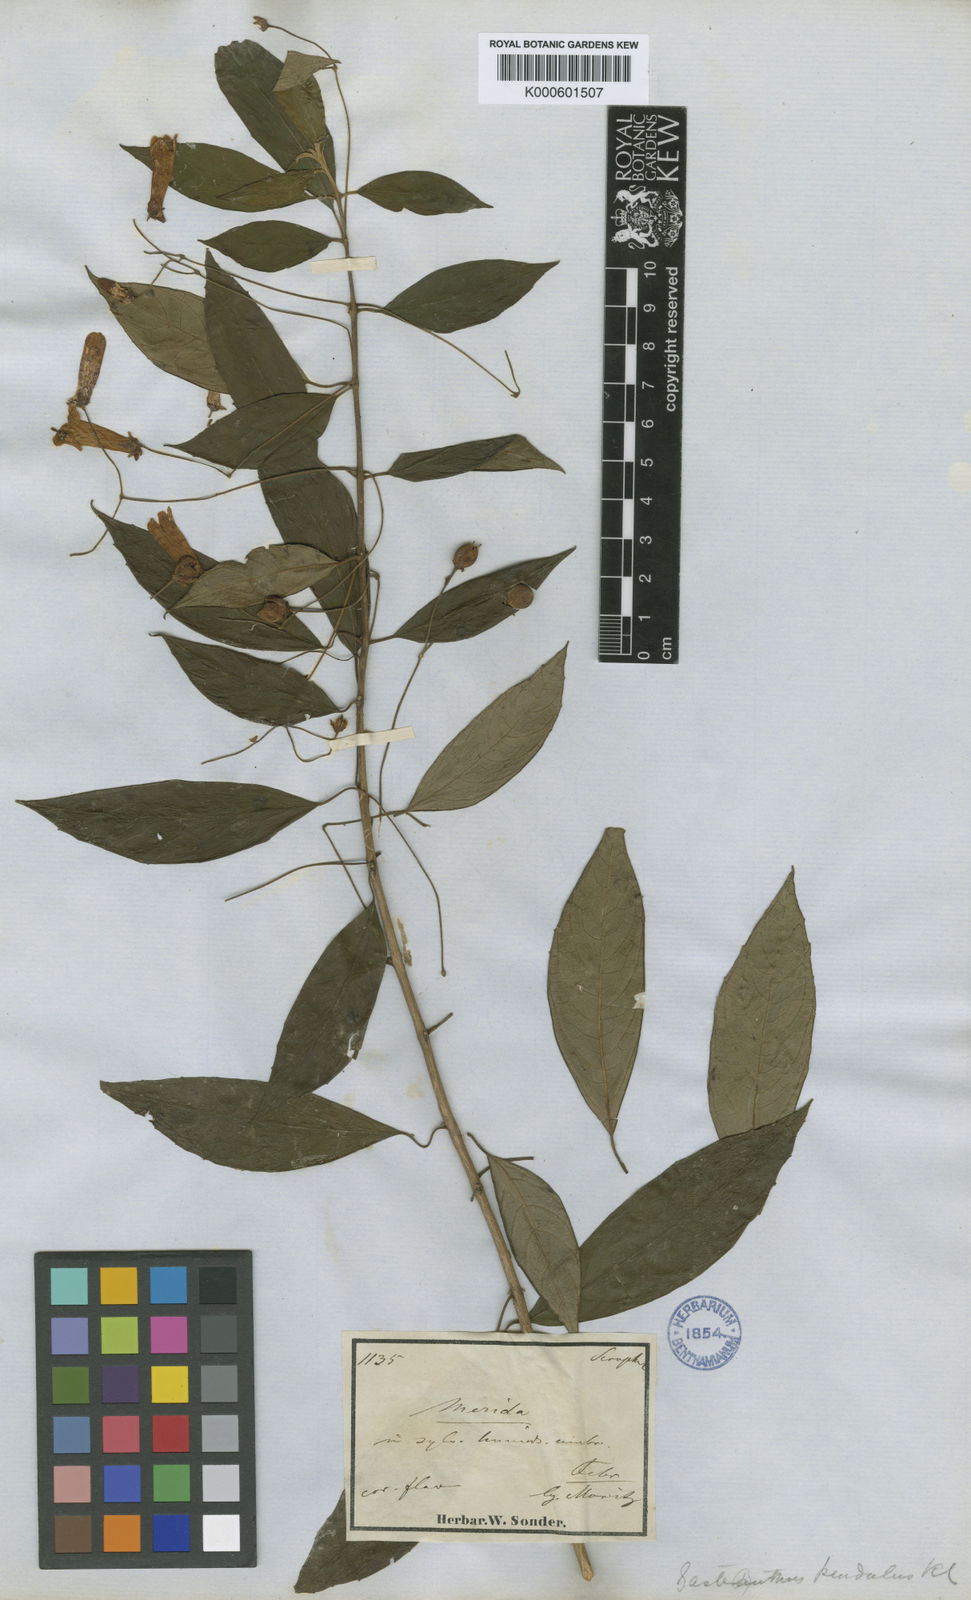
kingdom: Plantae
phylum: Tracheophyta
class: Magnoliopsida
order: Lamiales
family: Gesneriaceae
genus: Besleria
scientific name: Besleria pendula
